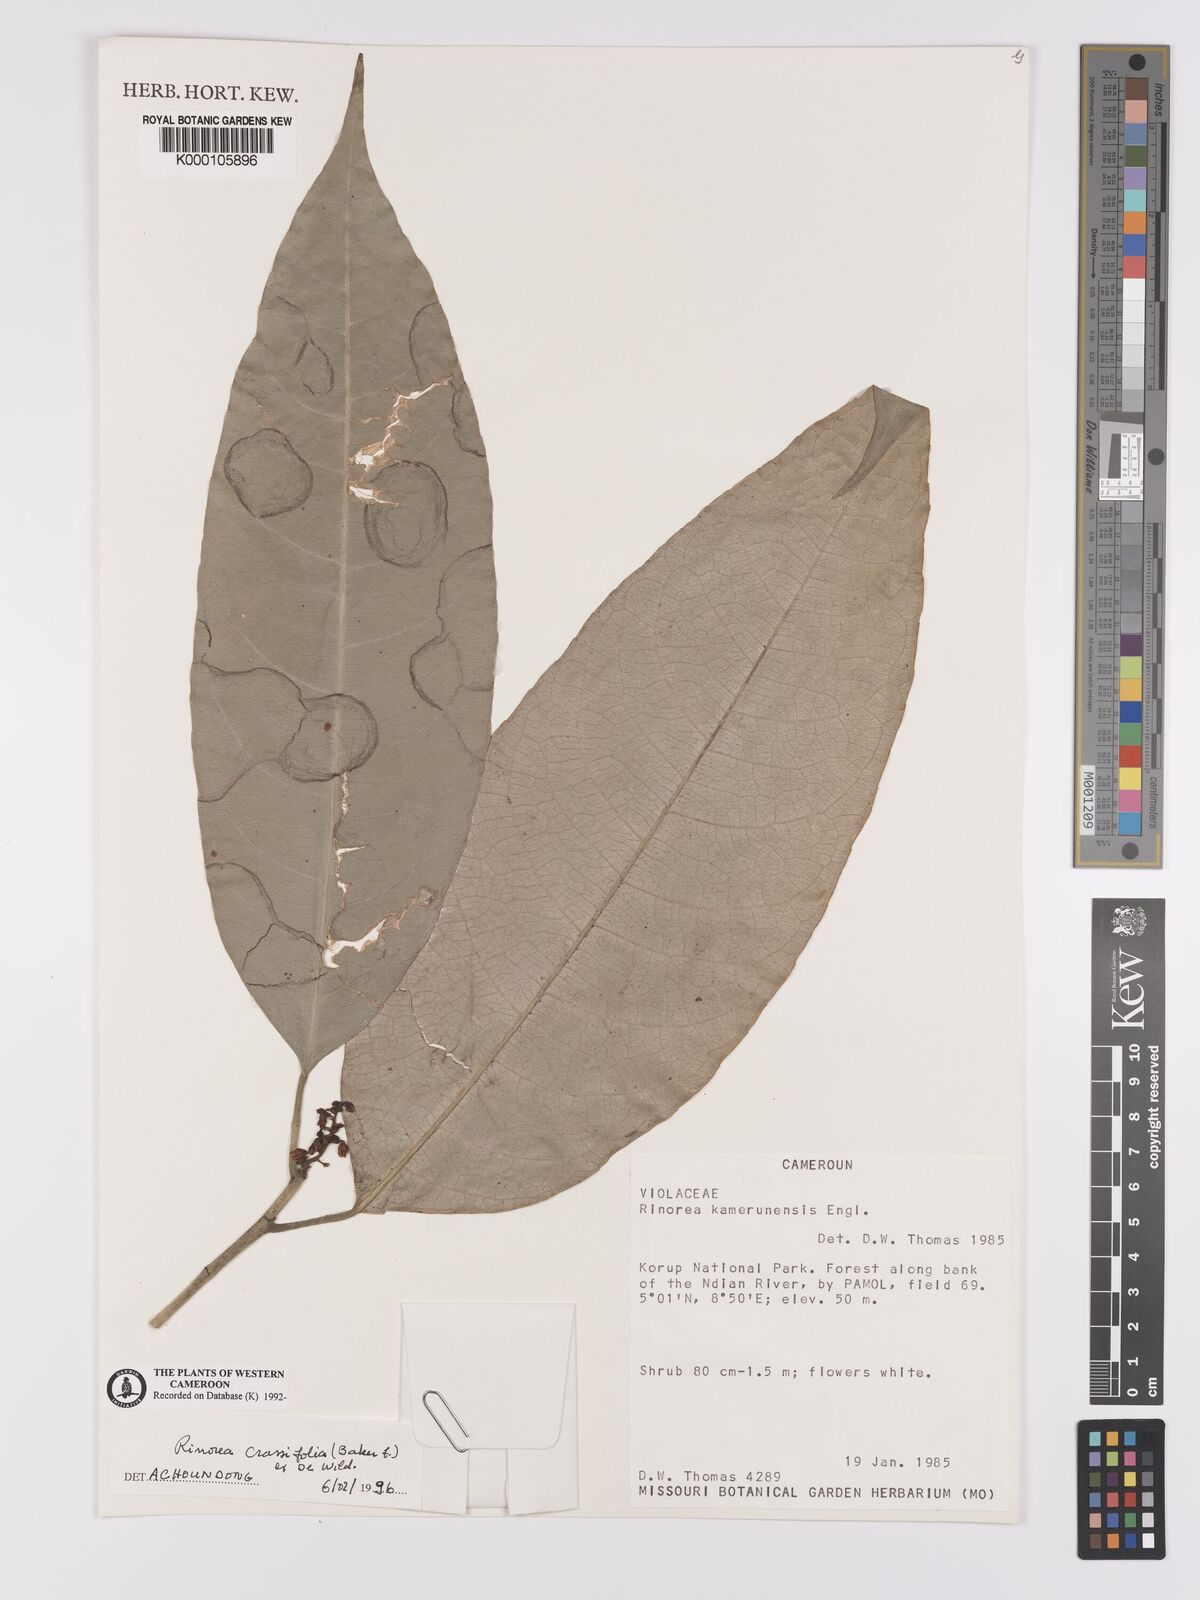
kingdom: Plantae
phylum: Tracheophyta
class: Magnoliopsida
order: Malpighiales
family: Violaceae
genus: Rinorea
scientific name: Rinorea crassifolia
